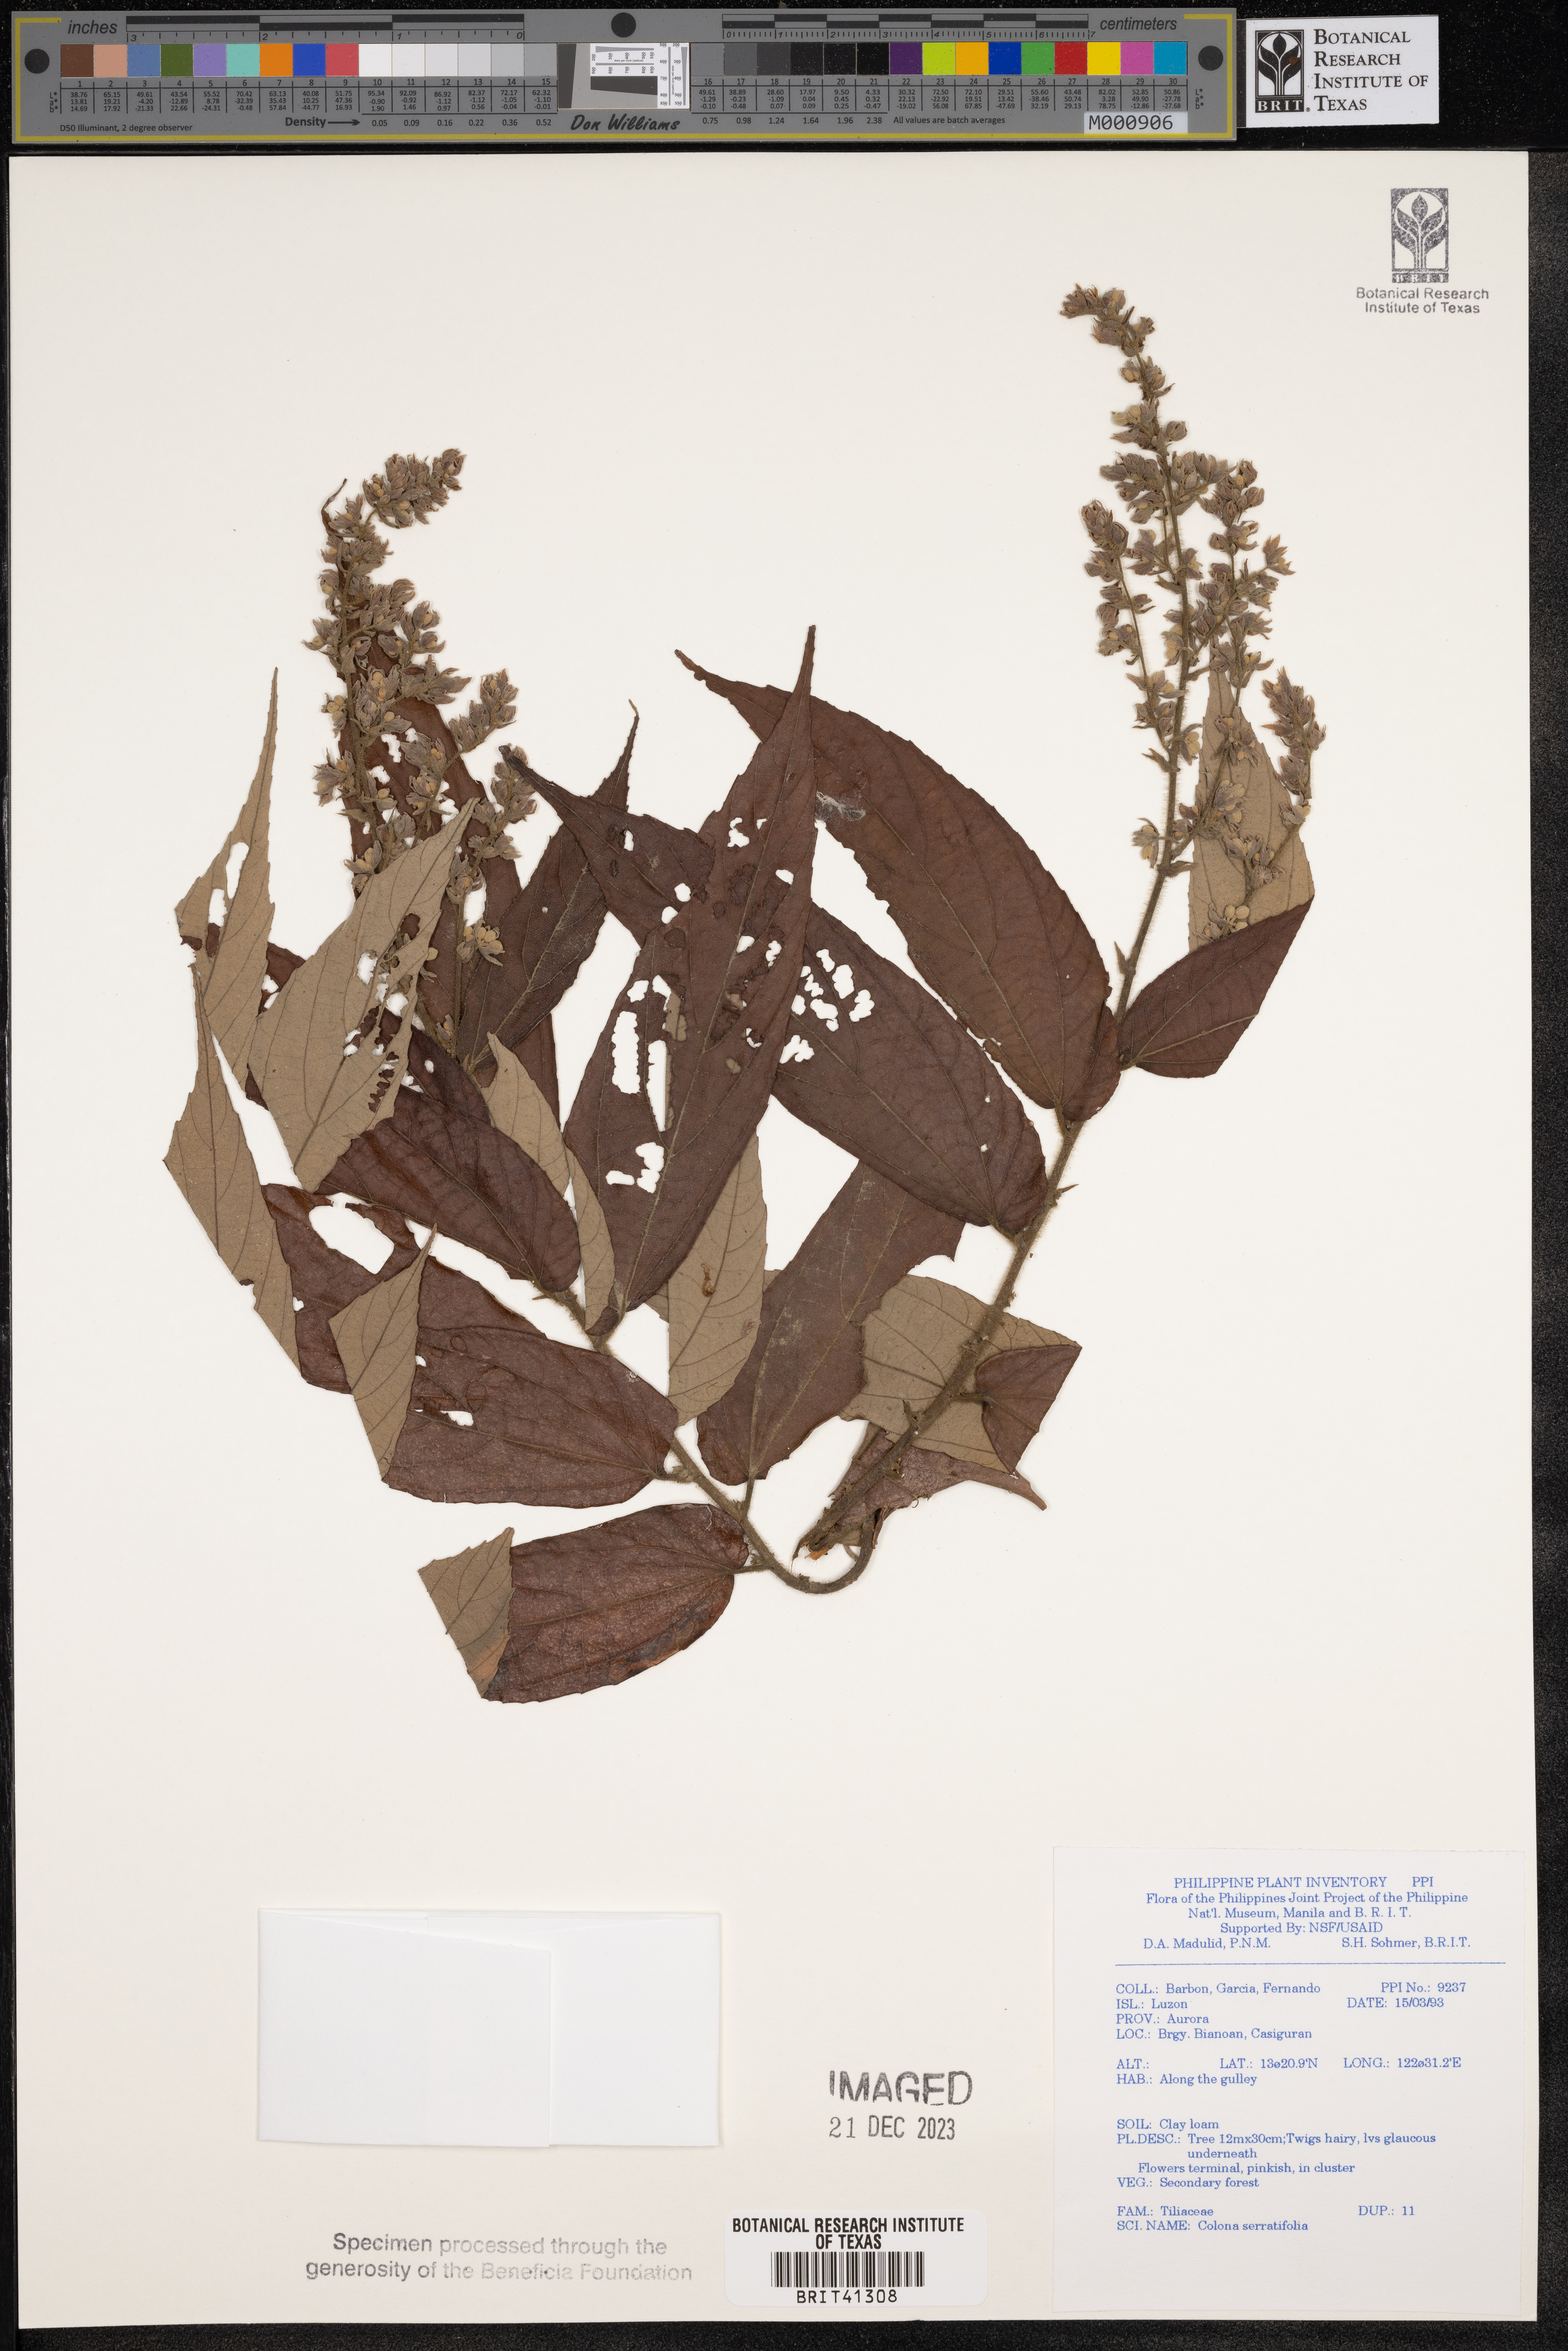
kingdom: Plantae
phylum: Tracheophyta
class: Magnoliopsida
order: Malvales
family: Malvaceae
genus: Colona
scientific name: Colona serratifolia
